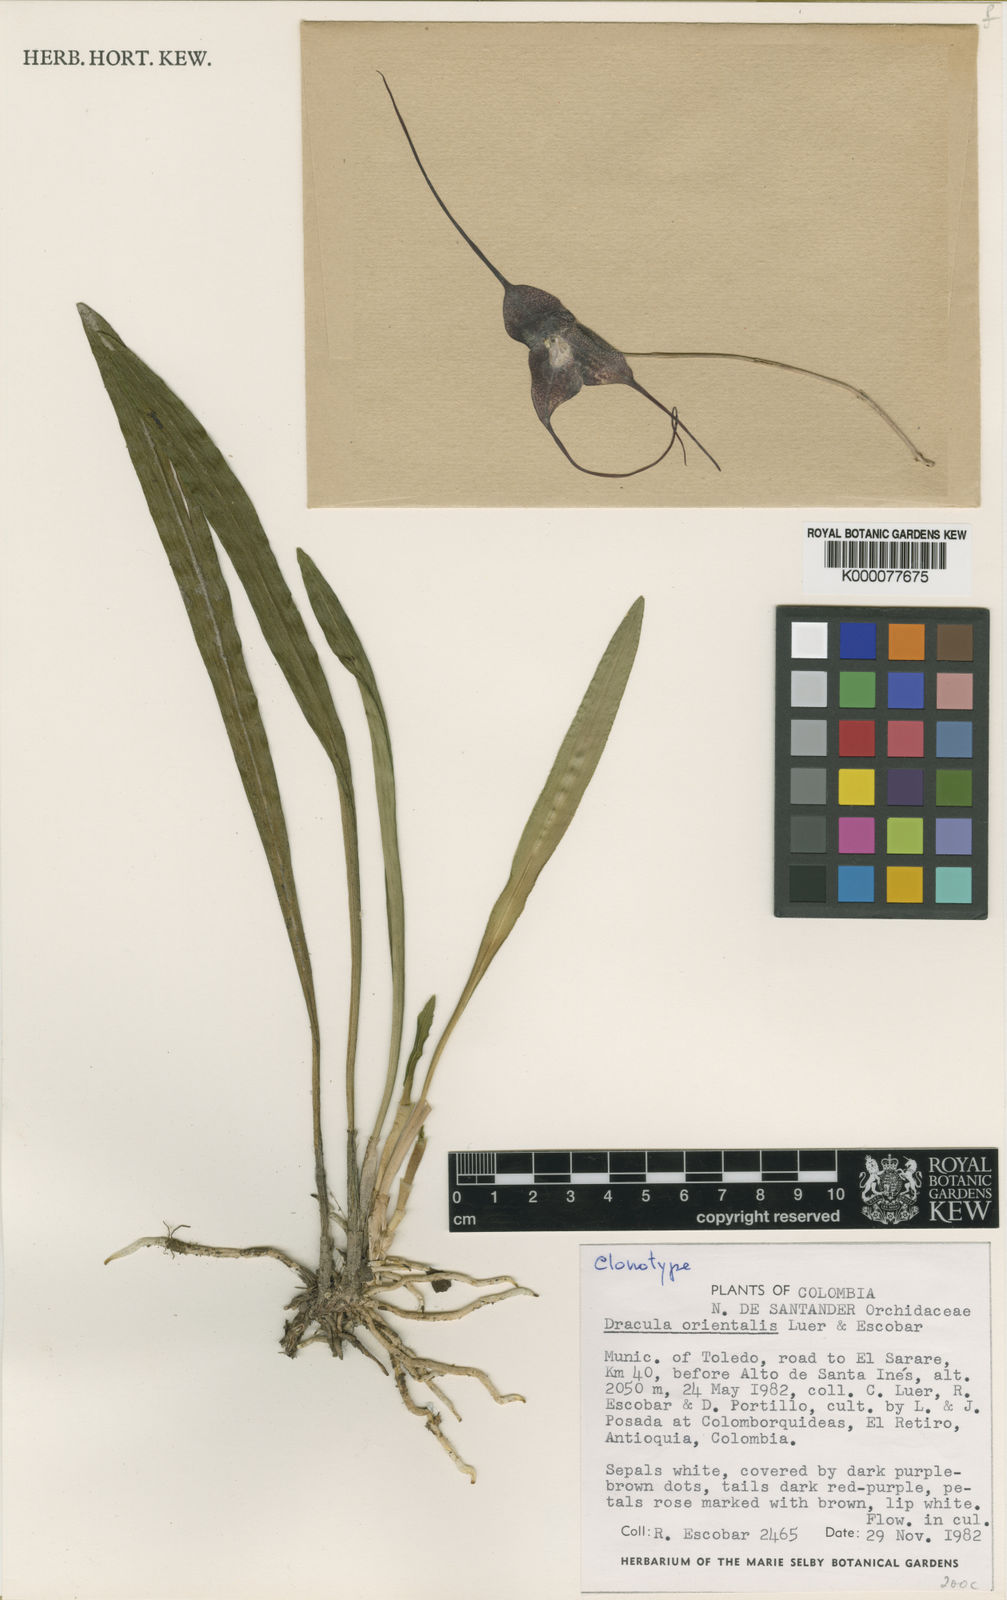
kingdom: Plantae
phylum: Tracheophyta
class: Liliopsida
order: Asparagales
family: Orchidaceae
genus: Dracula
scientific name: Dracula orientalis
